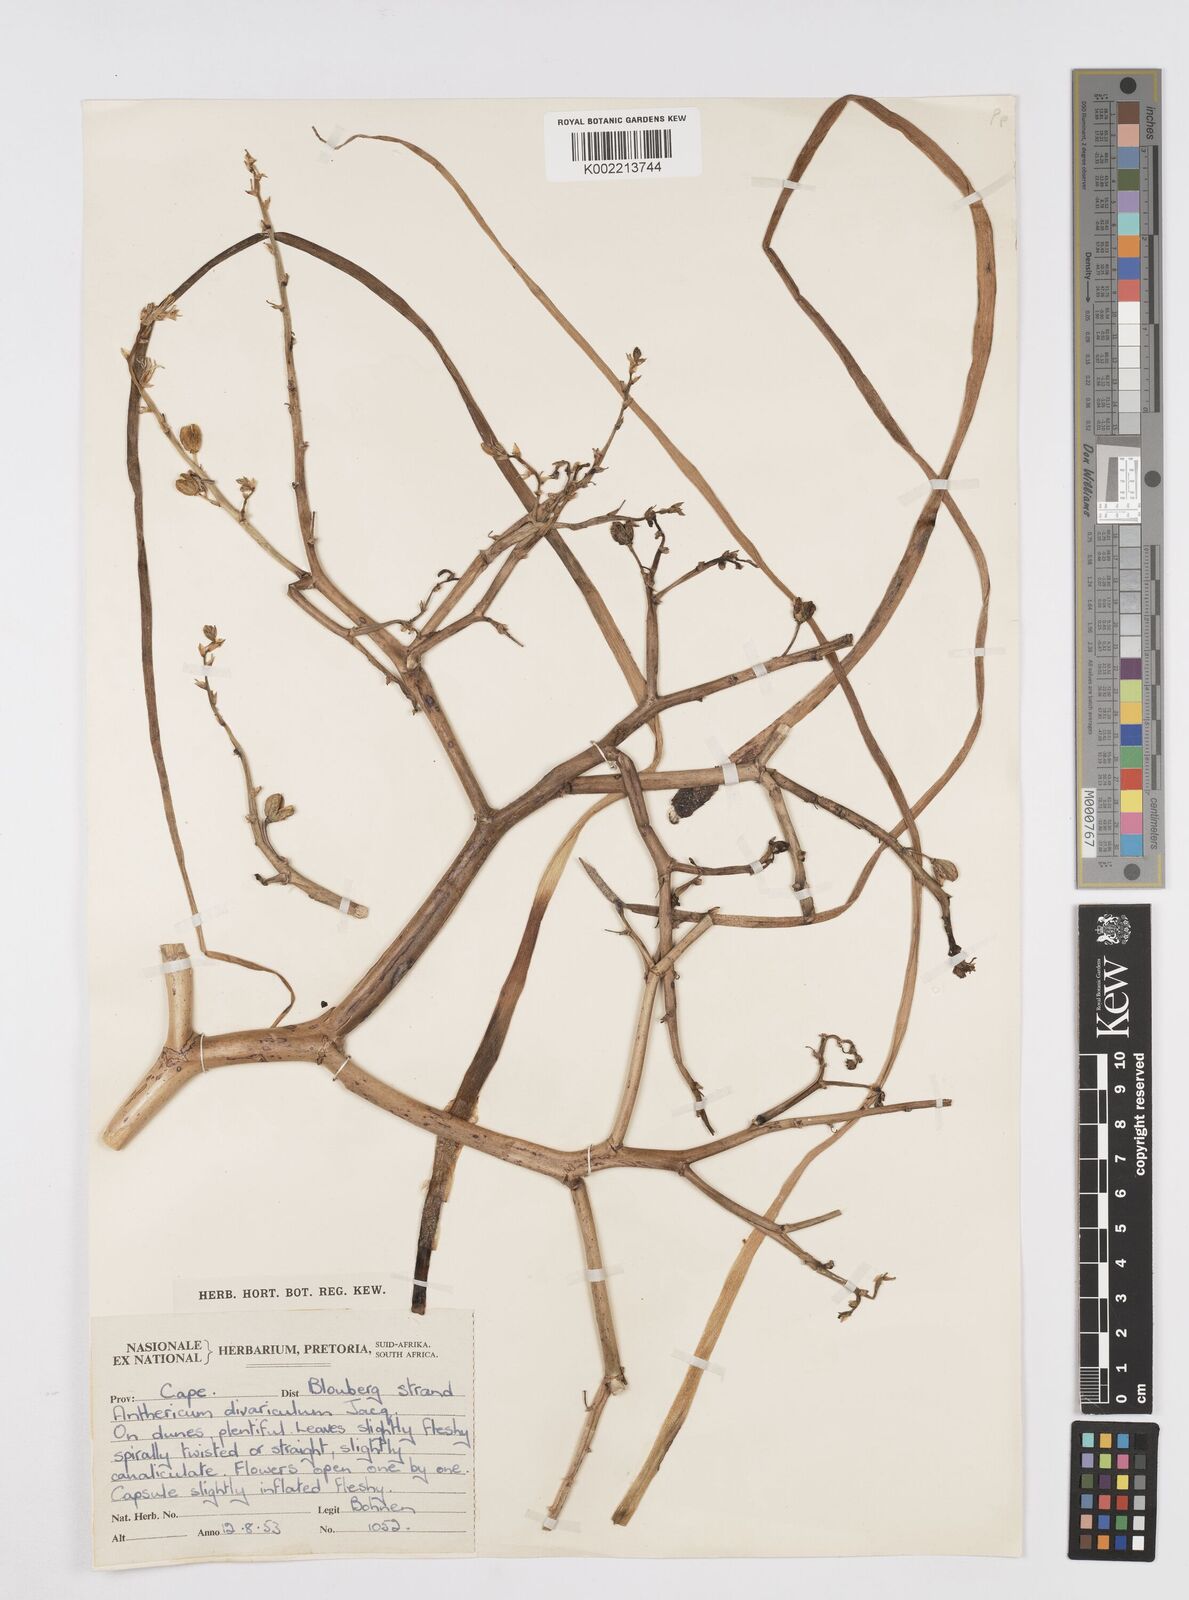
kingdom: Plantae
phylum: Tracheophyta
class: Liliopsida
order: Asparagales
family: Asphodelaceae
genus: Trachyandra
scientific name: Trachyandra divaricata
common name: Dune onionweed
